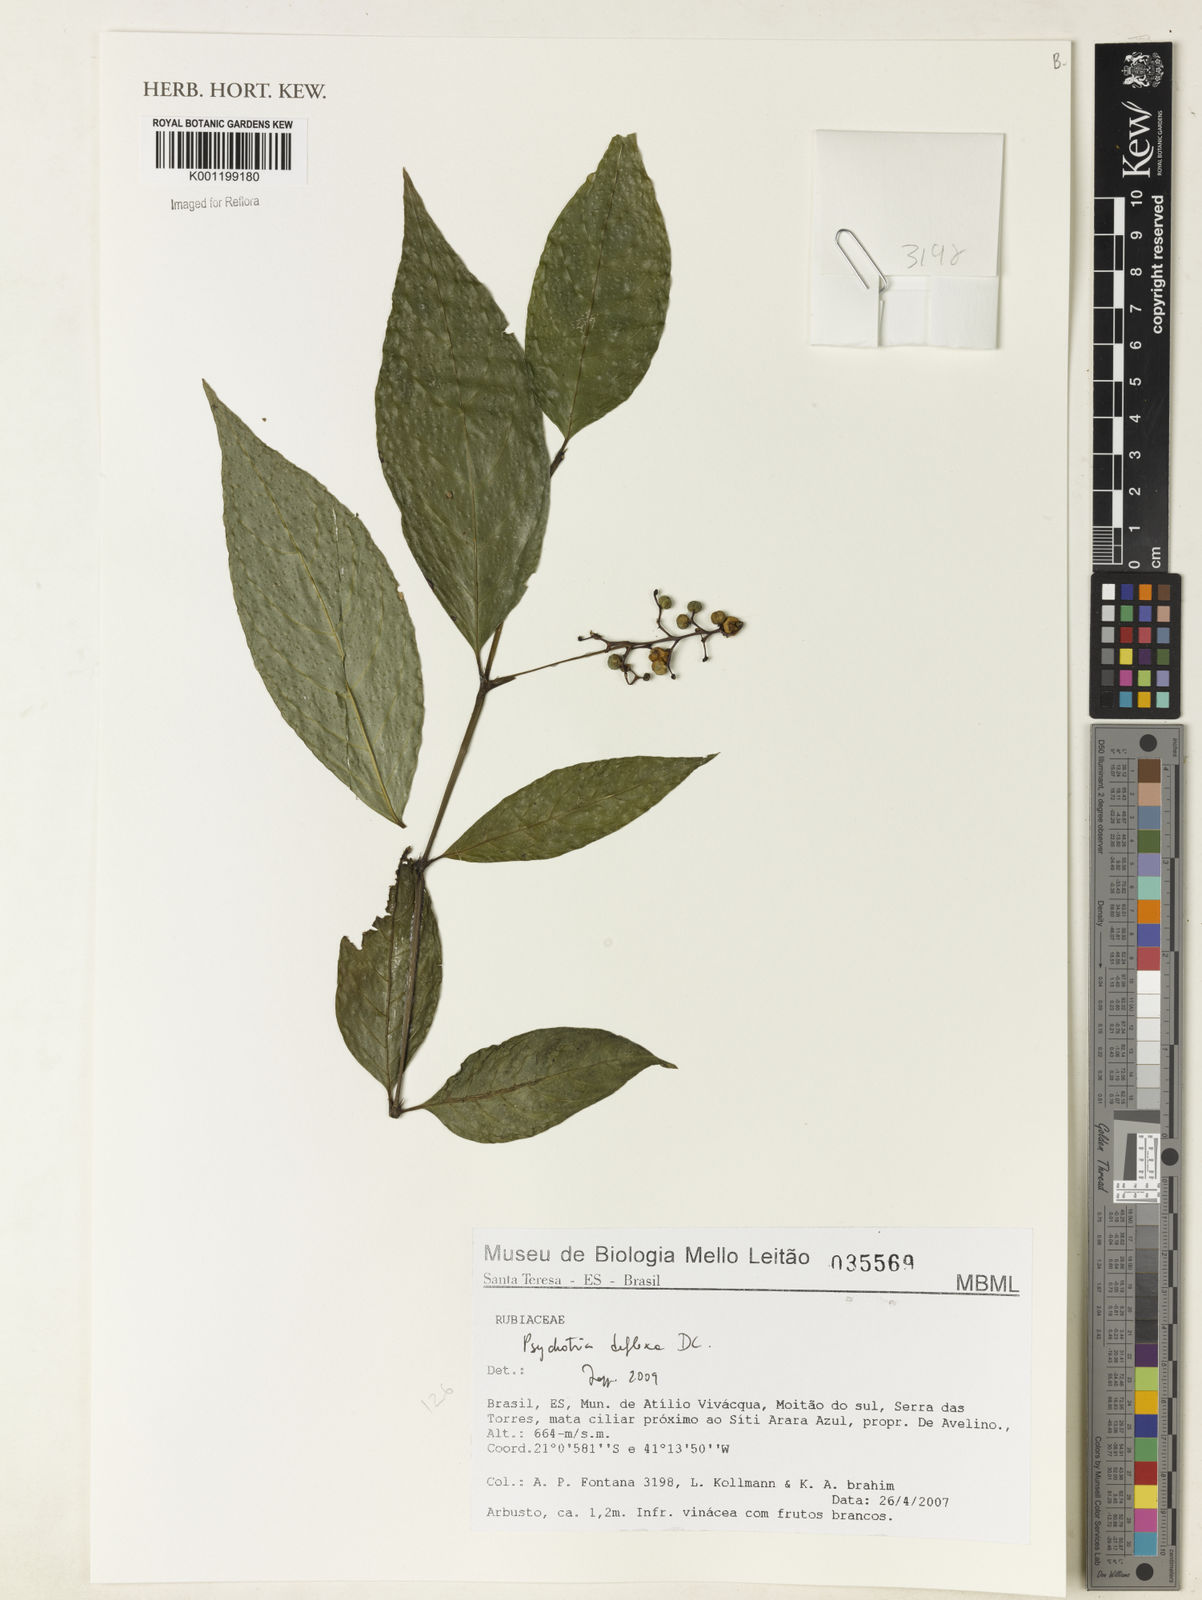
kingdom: Plantae
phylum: Tracheophyta
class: Magnoliopsida
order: Gentianales
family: Rubiaceae
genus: Palicourea
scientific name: Palicourea deflexa
